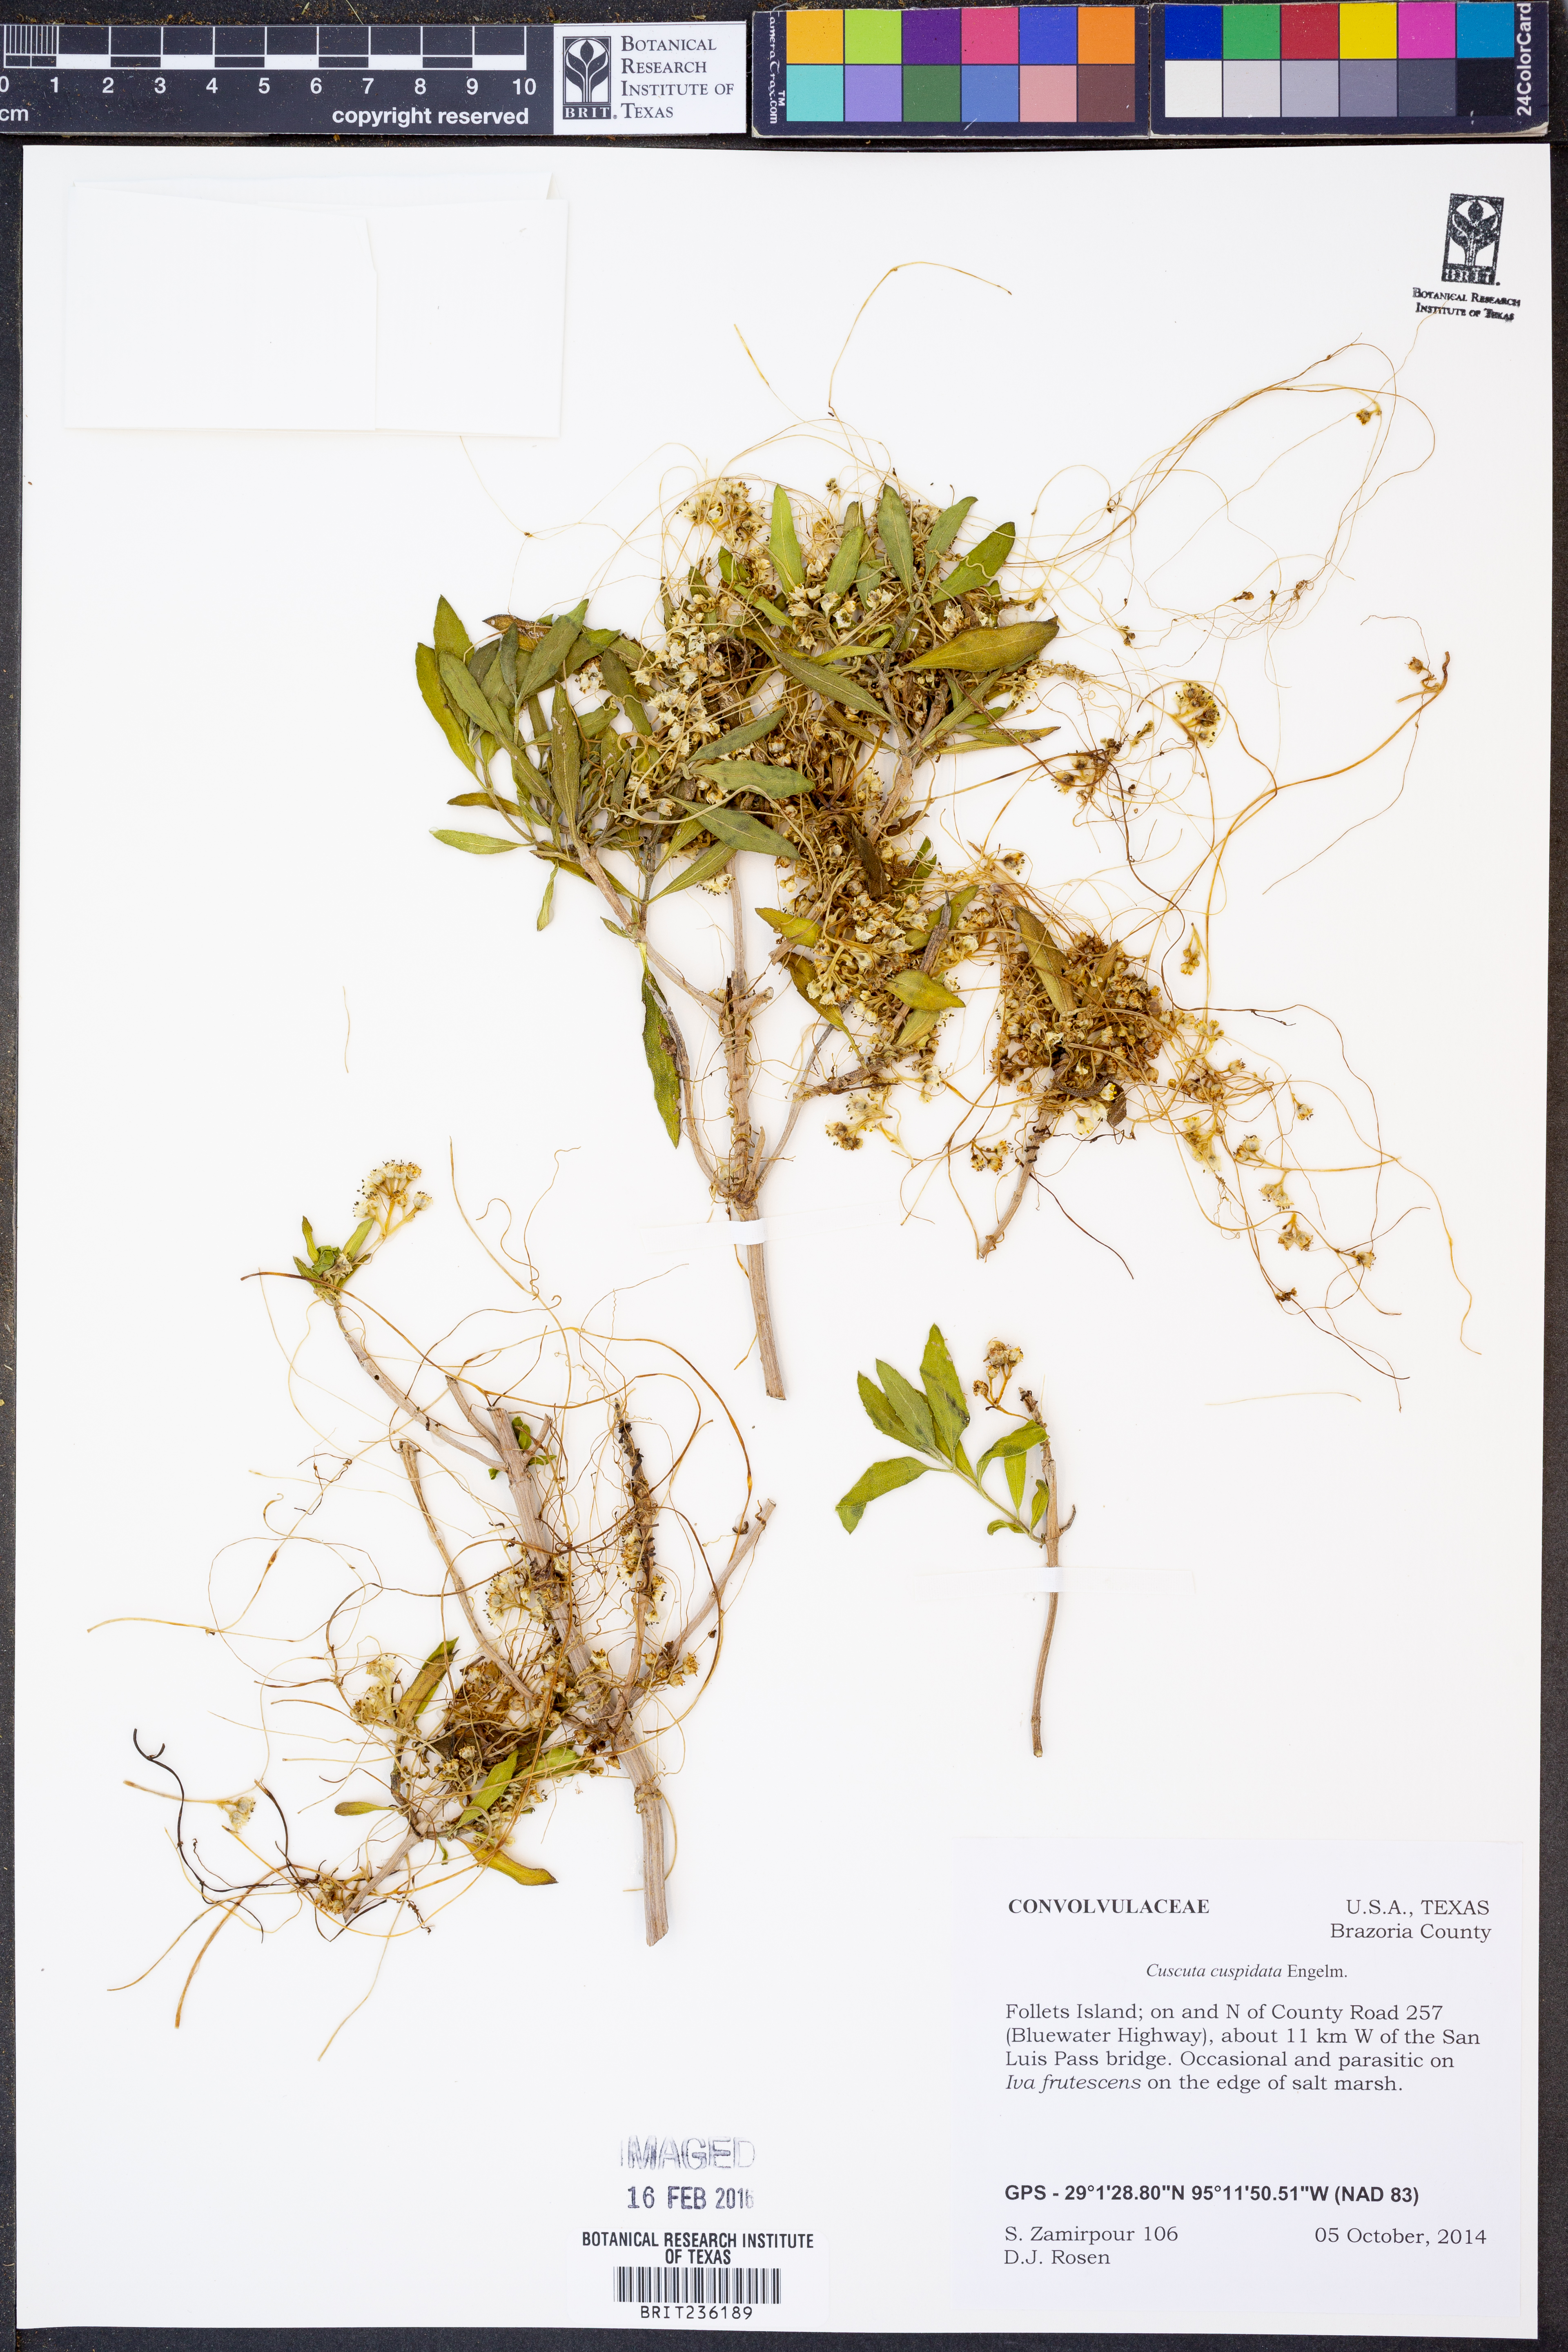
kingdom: Plantae
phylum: Tracheophyta
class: Magnoliopsida
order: Solanales
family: Convolvulaceae
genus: Cuscuta
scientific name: Cuscuta cuspidata
